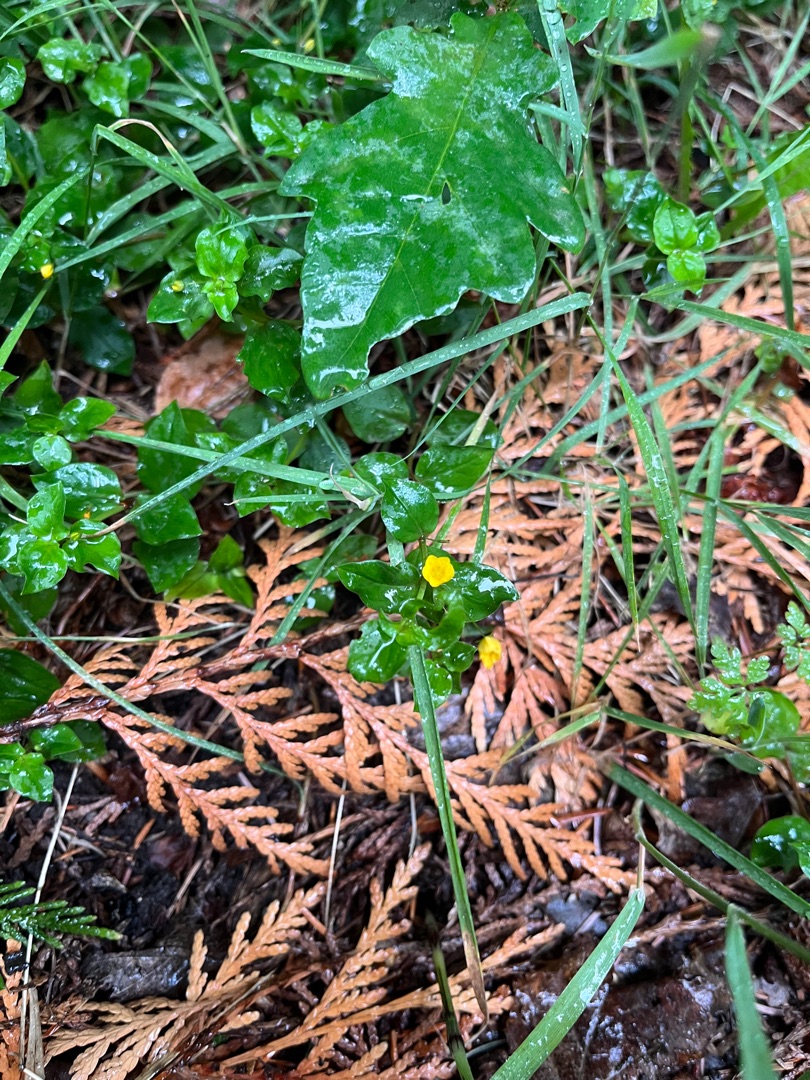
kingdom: Plantae
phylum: Tracheophyta
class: Magnoliopsida
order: Ericales
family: Primulaceae
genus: Lysimachia
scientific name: Lysimachia nemorum
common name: Lund-fredløs
